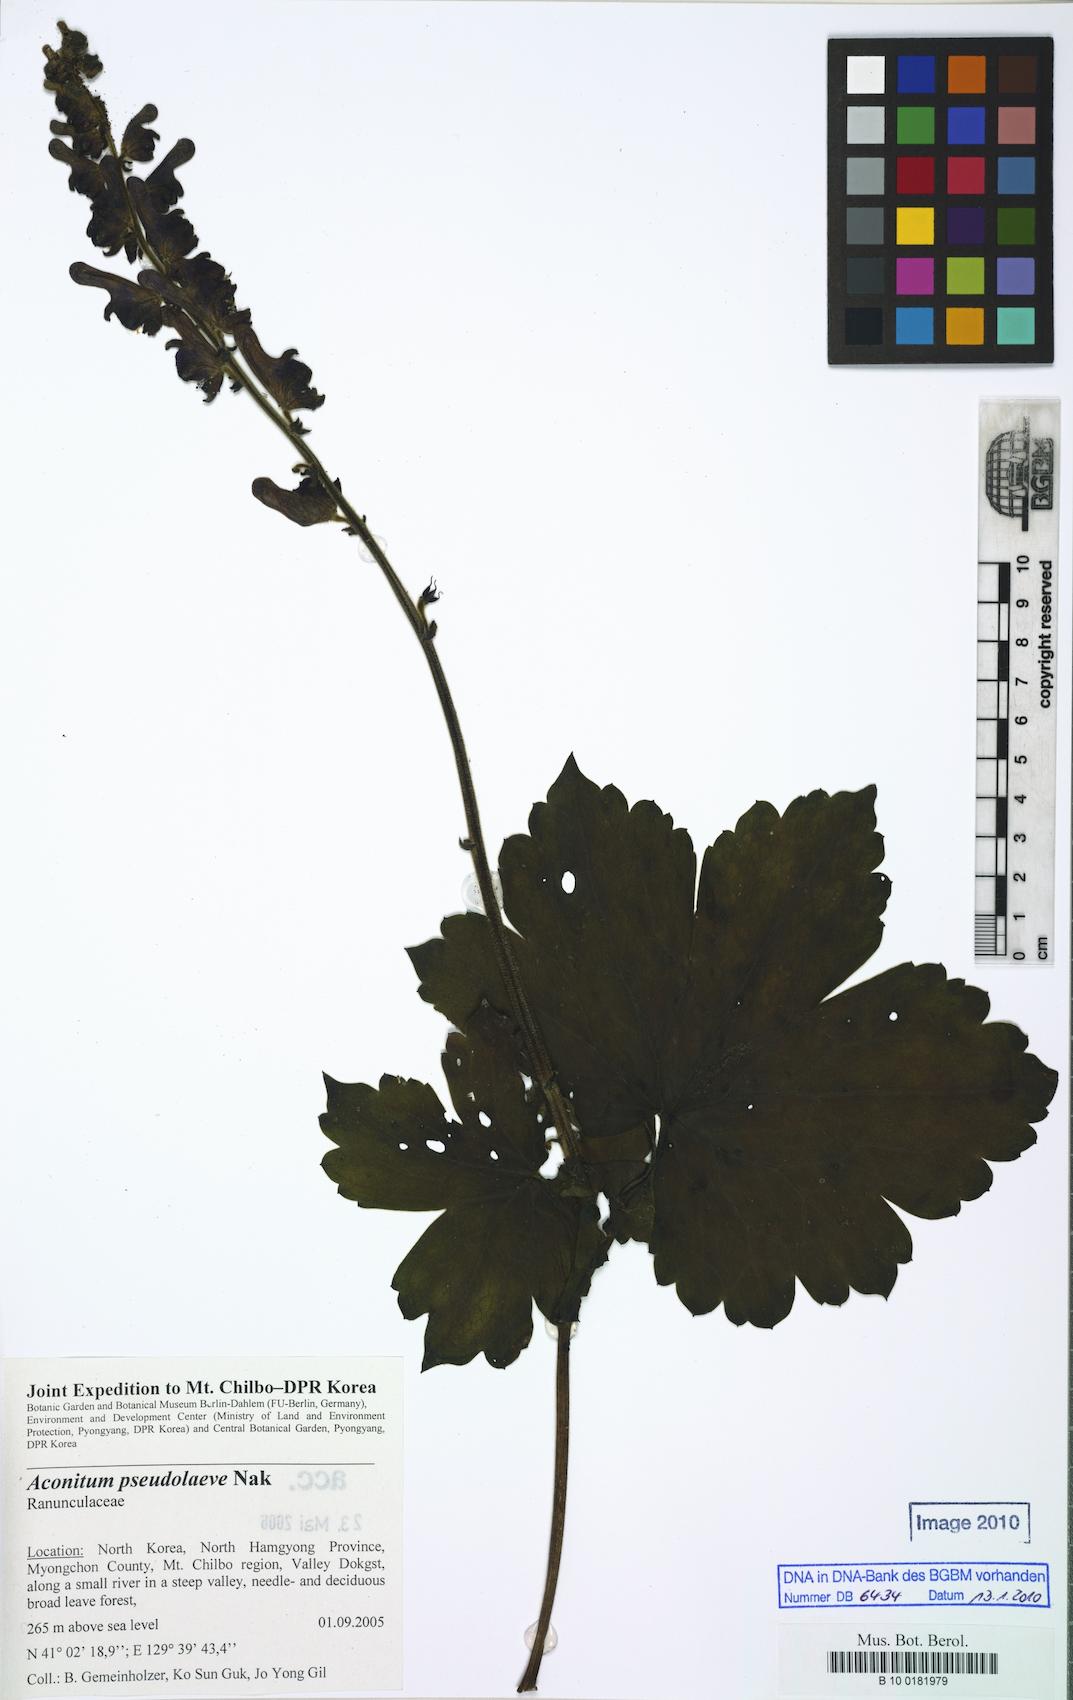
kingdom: Plantae
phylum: Tracheophyta
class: Magnoliopsida
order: Ranunculales
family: Ranunculaceae
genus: Aconitum
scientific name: Aconitum pseudolaeve
